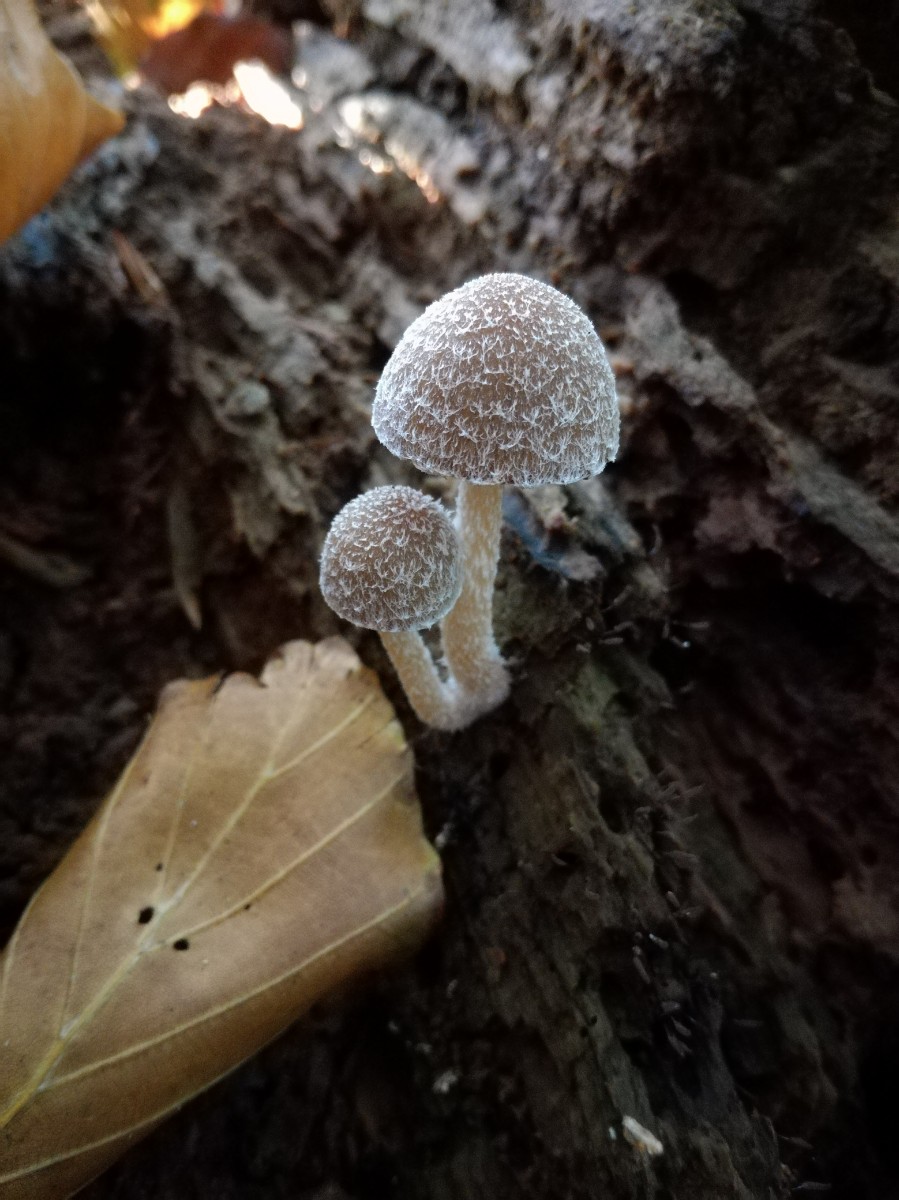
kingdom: Fungi
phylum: Basidiomycota
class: Agaricomycetes
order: Agaricales
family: Psathyrellaceae
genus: Psathyrella
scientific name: Psathyrella impexa
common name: rødmende mørkhat
